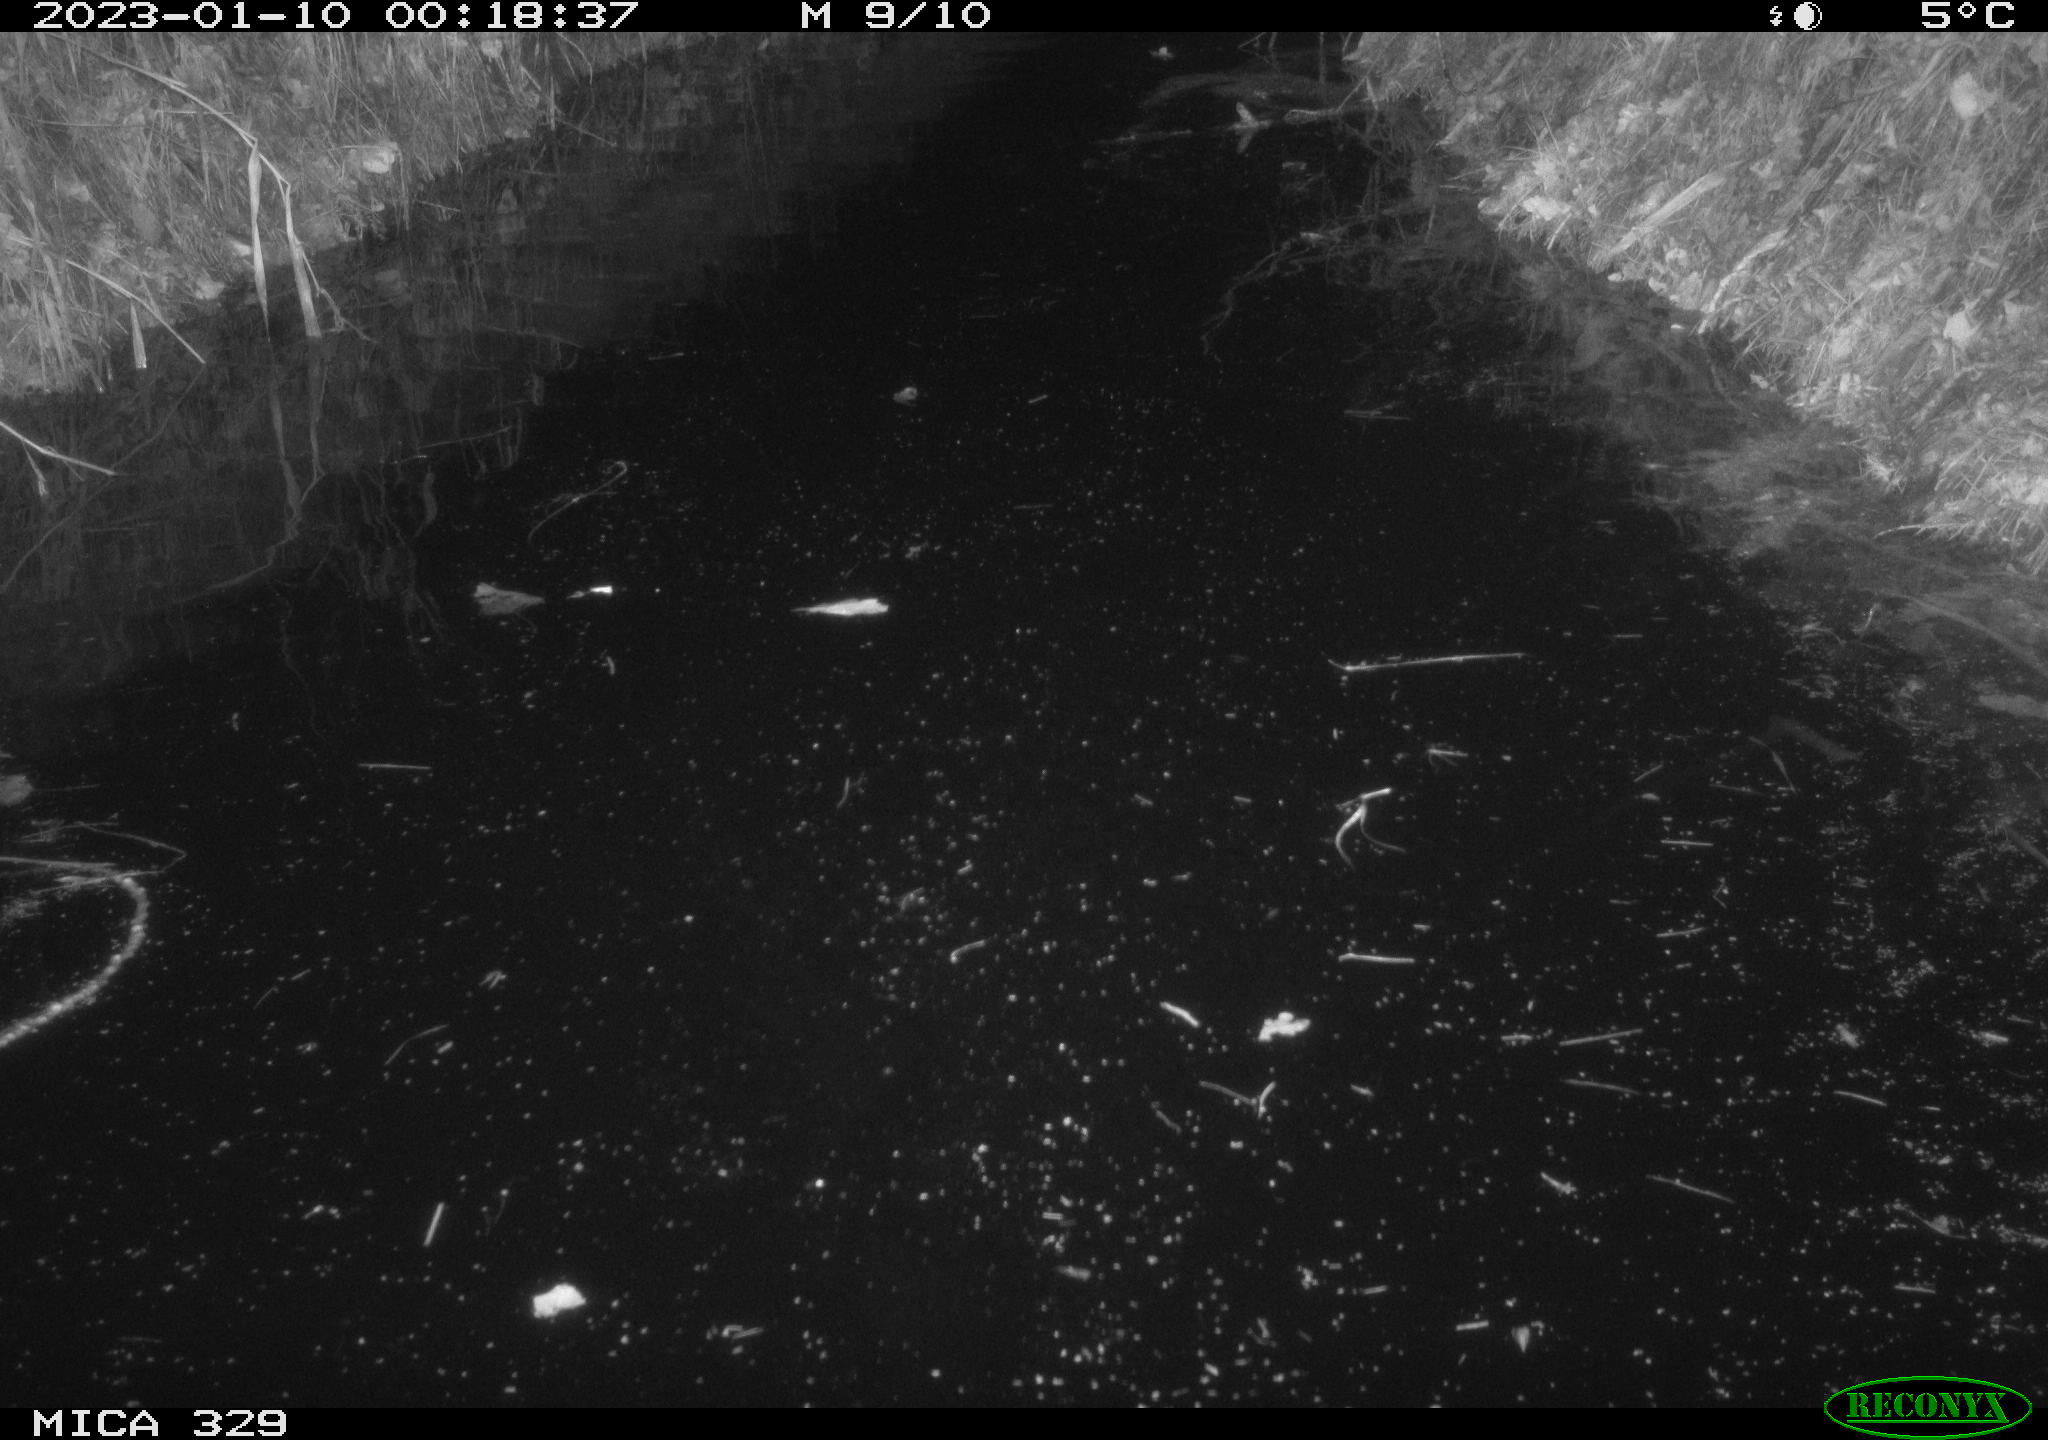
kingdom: Animalia
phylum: Chordata
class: Mammalia
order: Rodentia
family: Cricetidae
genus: Ondatra
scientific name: Ondatra zibethicus
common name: Muskrat
